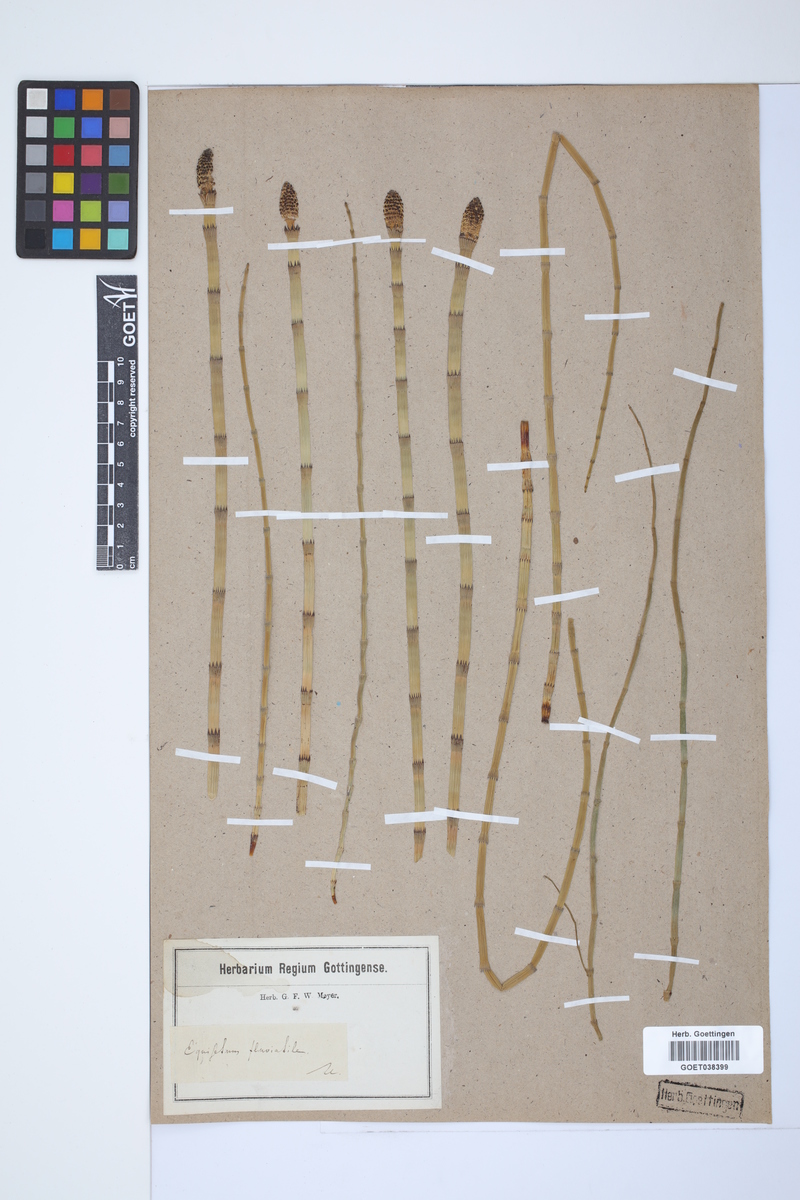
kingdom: Plantae
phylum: Tracheophyta
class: Polypodiopsida
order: Equisetales
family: Equisetaceae
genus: Equisetum
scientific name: Equisetum fluviatile
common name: Water horsetail
